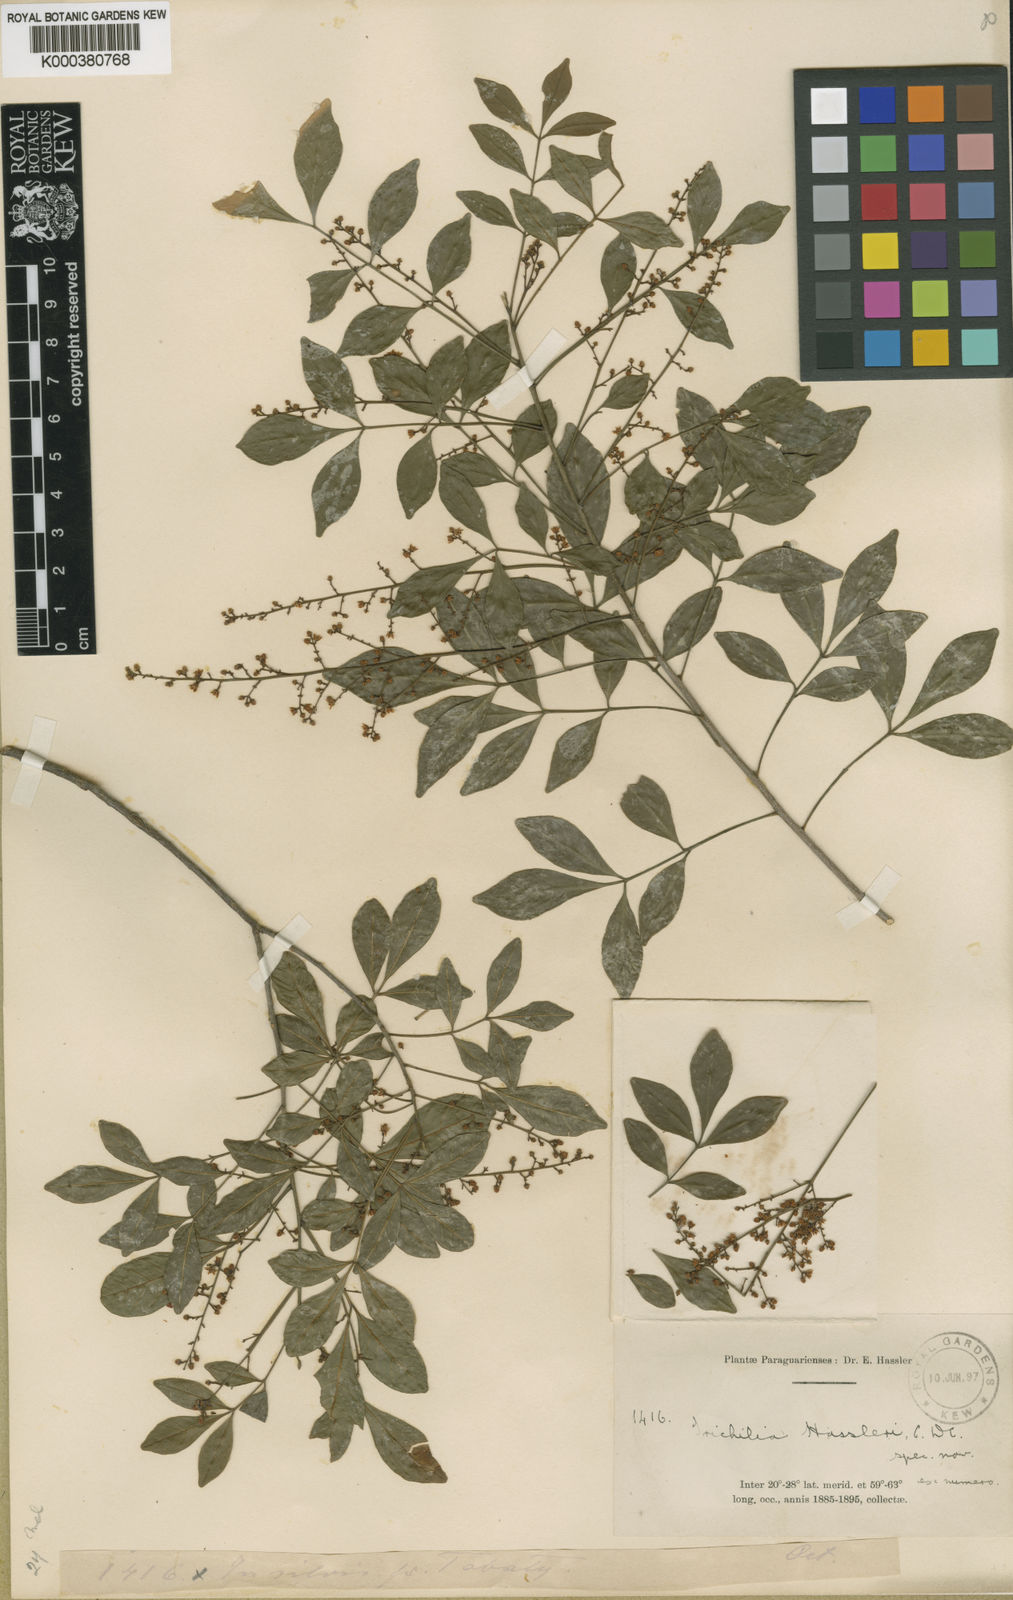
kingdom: Plantae
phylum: Tracheophyta
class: Magnoliopsida
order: Sapindales
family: Meliaceae
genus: Trichilia
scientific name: Trichilia elegans
